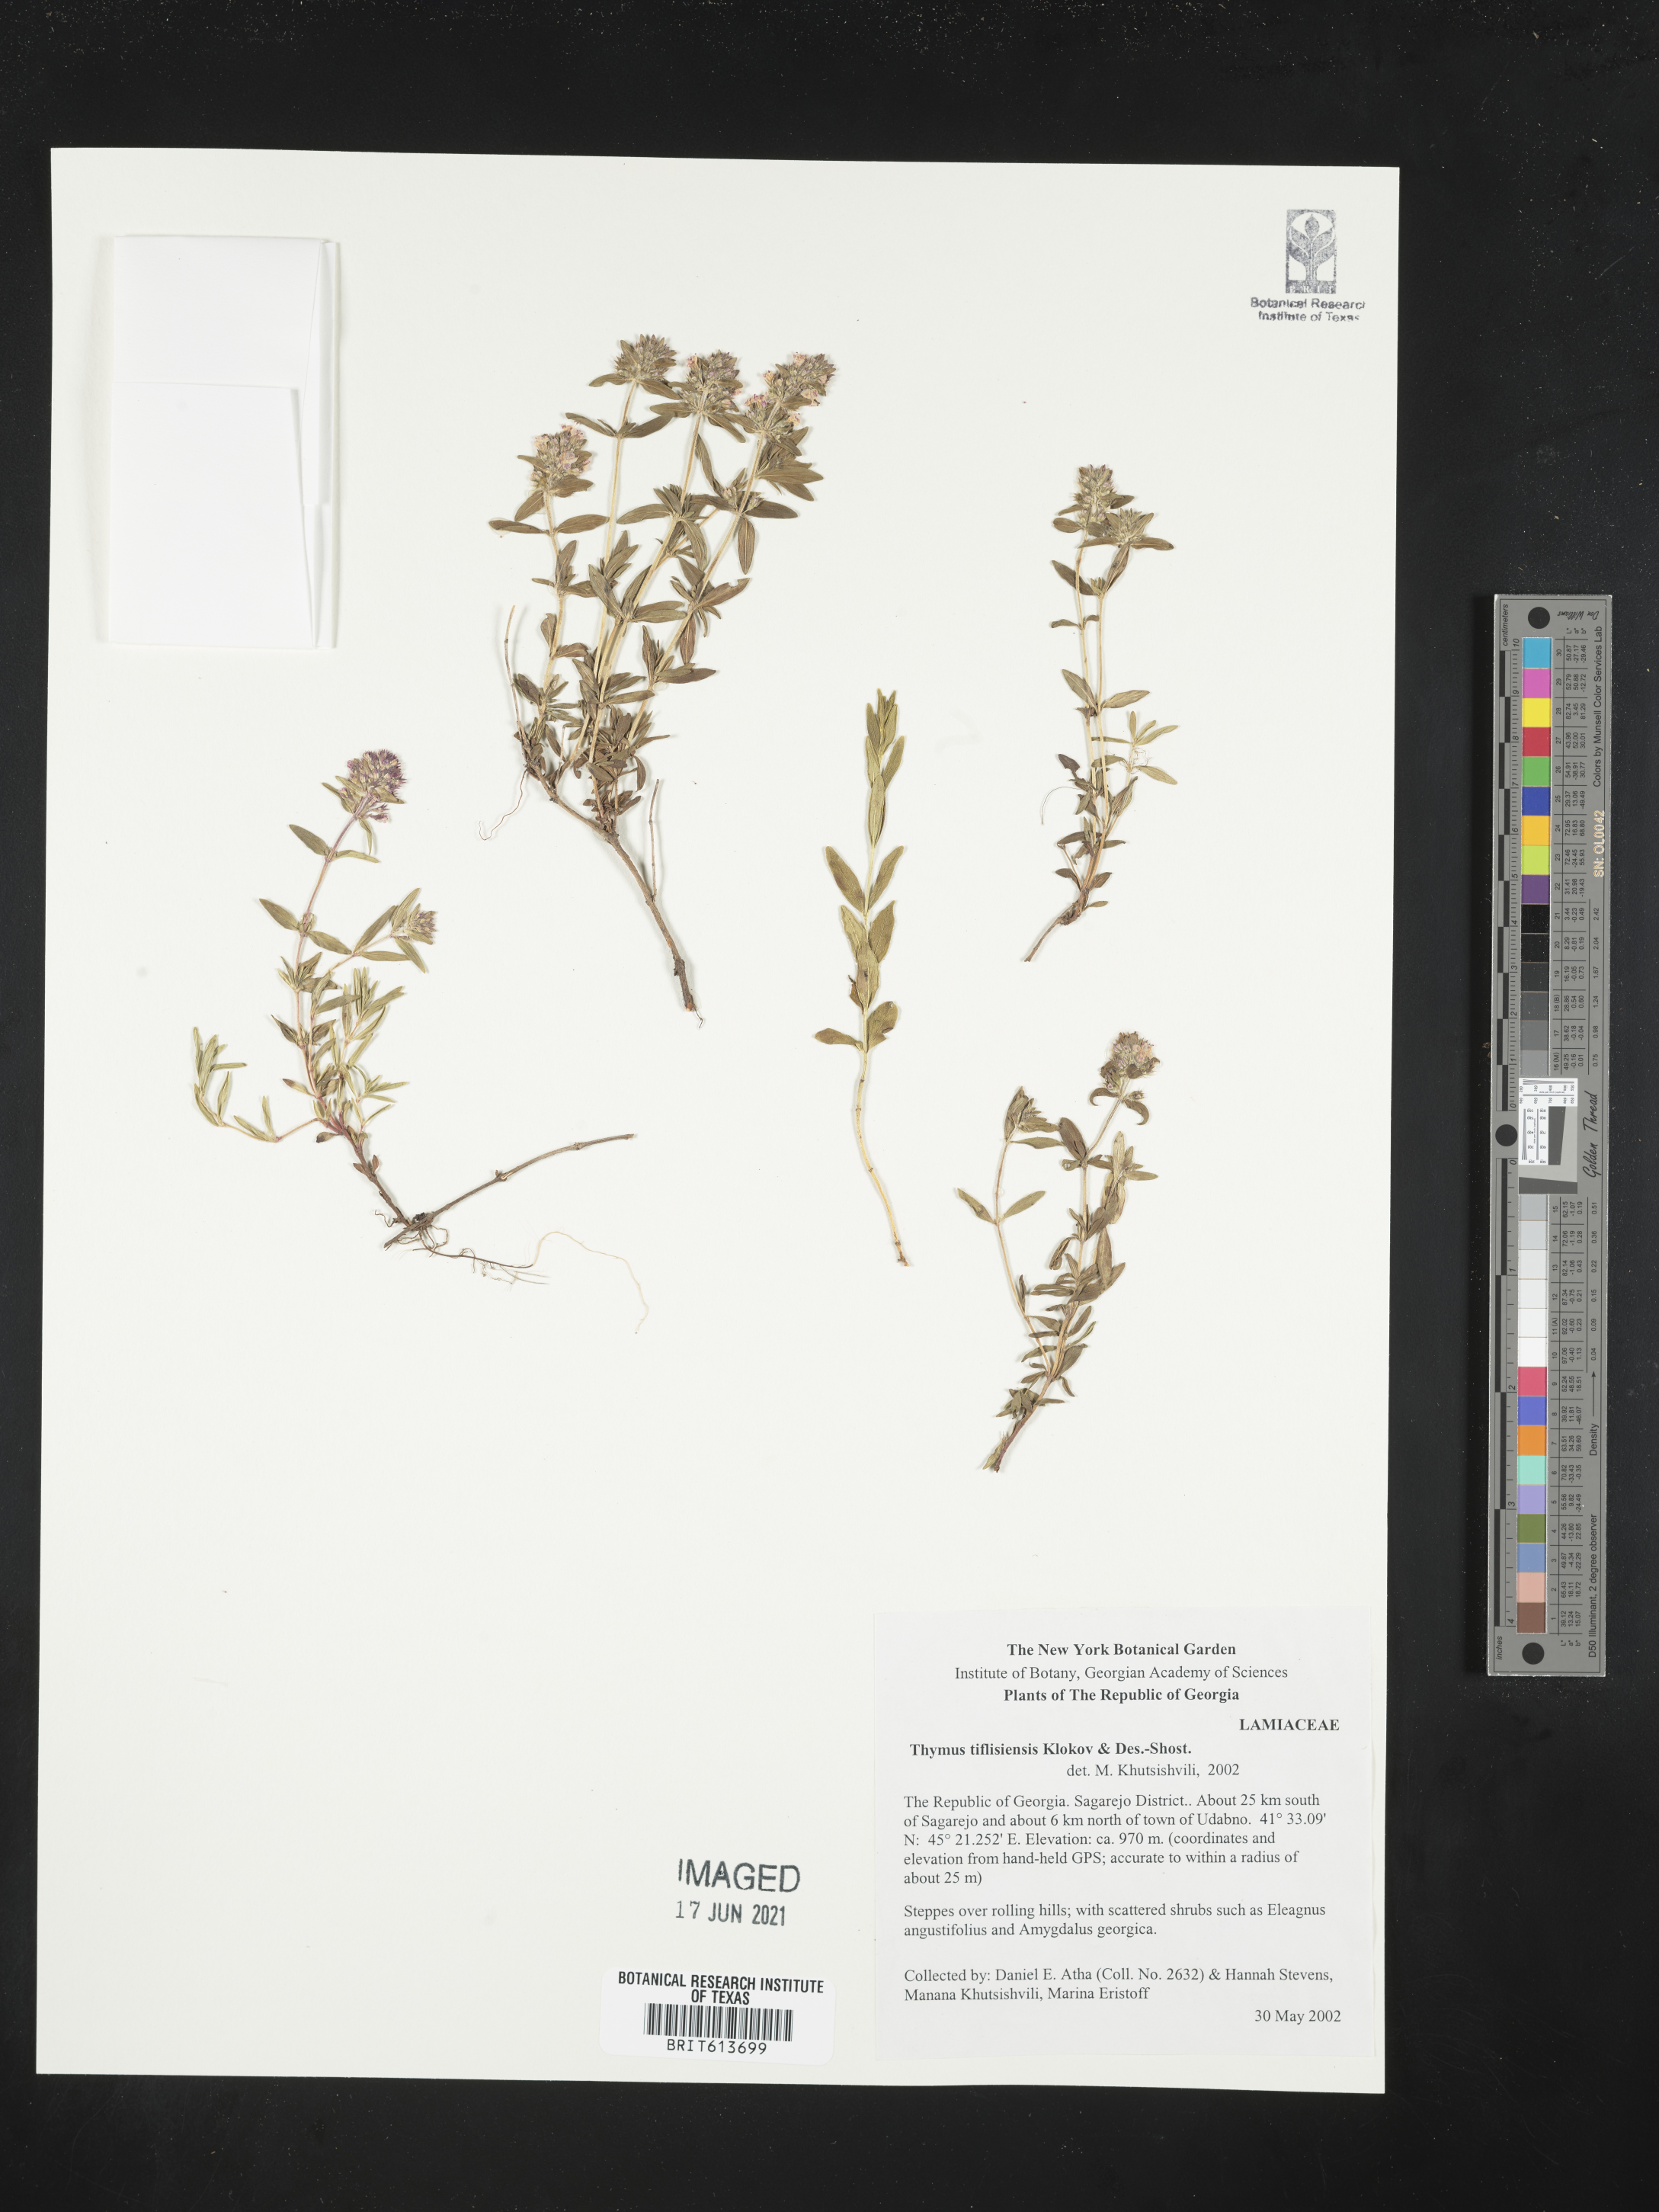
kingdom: Plantae
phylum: Tracheophyta
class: Magnoliopsida
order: Lamiales
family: Lamiaceae
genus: Thymus
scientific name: Thymus tiflisiensis
